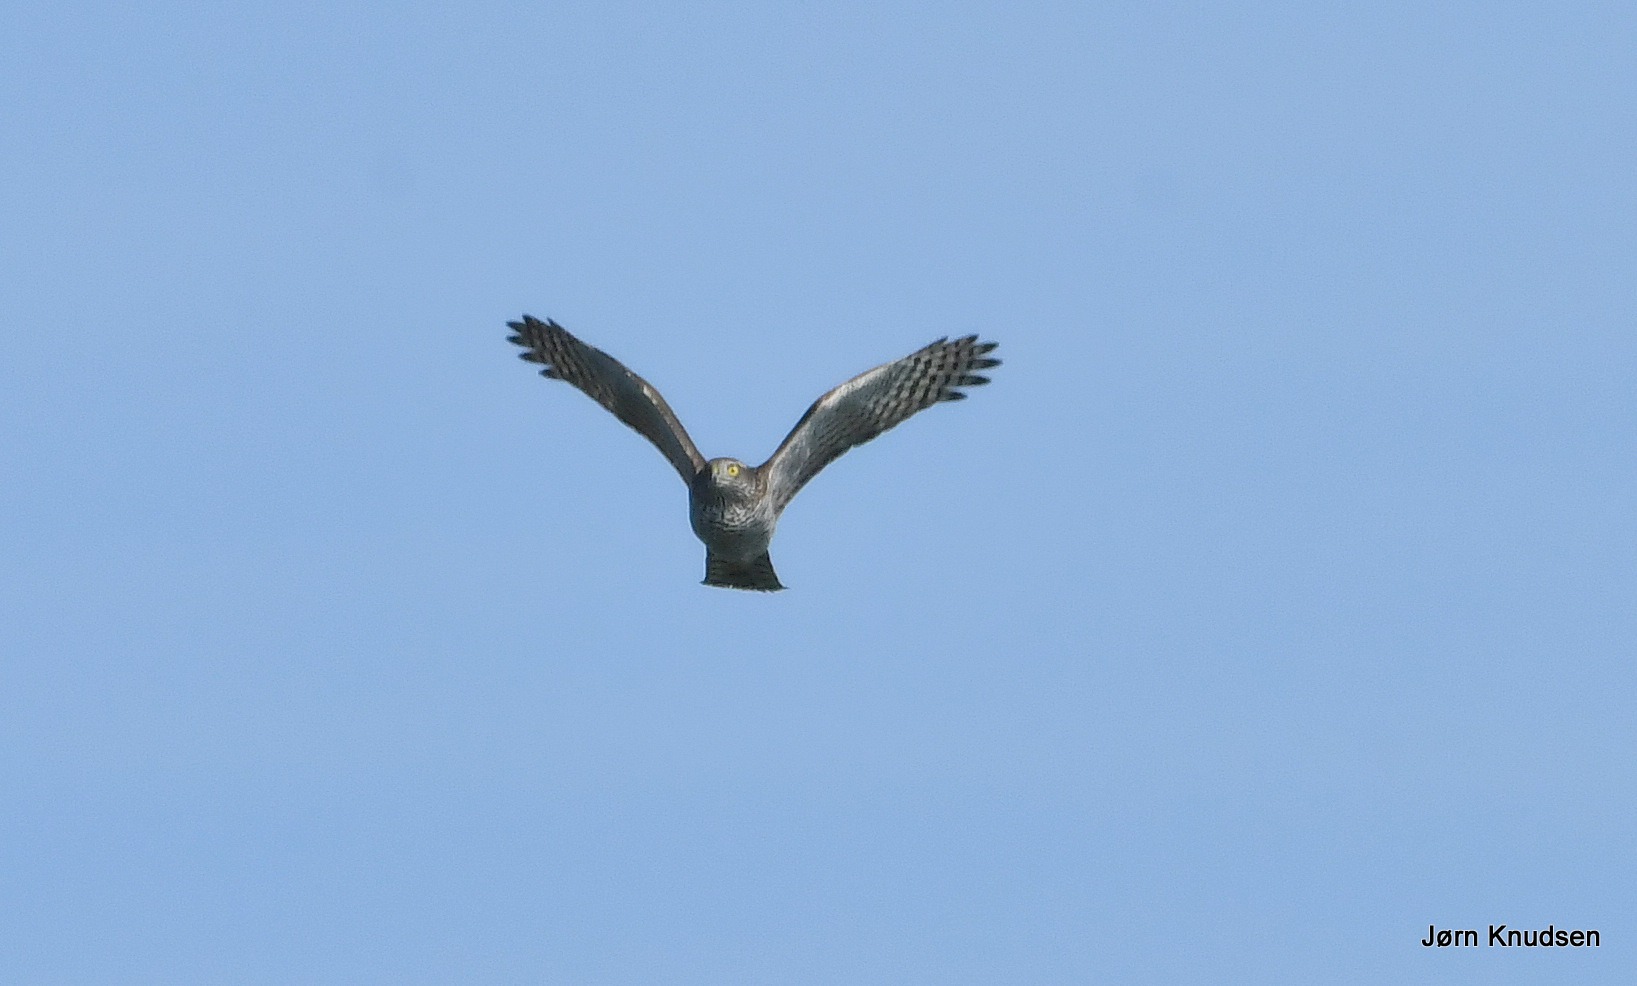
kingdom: Animalia
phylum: Chordata
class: Aves
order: Accipitriformes
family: Accipitridae
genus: Accipiter
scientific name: Accipiter nisus
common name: Spurvehøg
